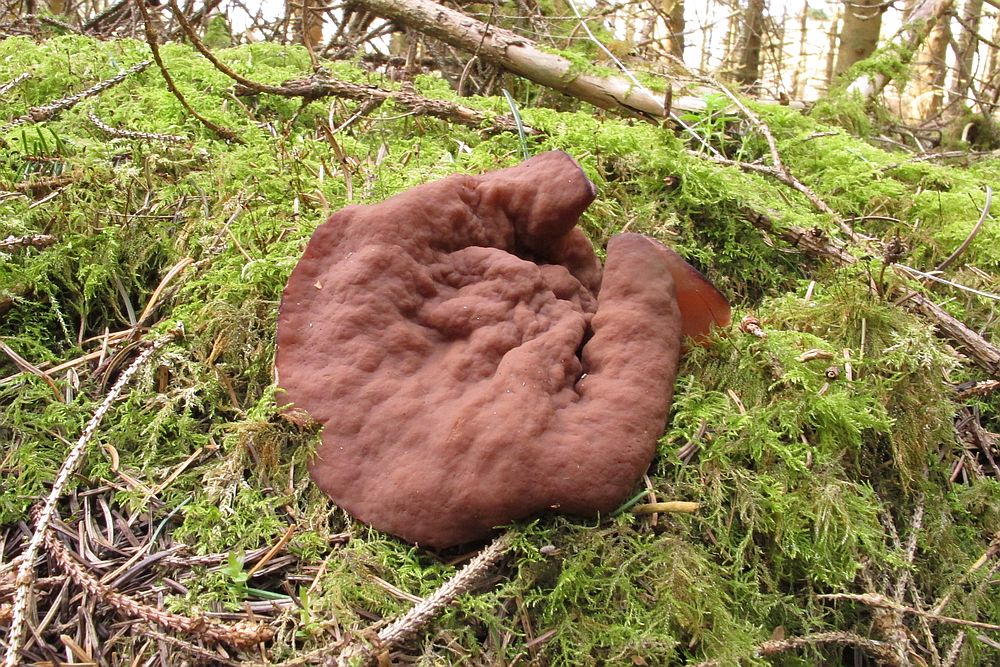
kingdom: Fungi
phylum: Ascomycota
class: Pezizomycetes
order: Pezizales
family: Discinaceae
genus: Discina
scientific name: Discina ancilis
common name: udbredt stenmorkel
